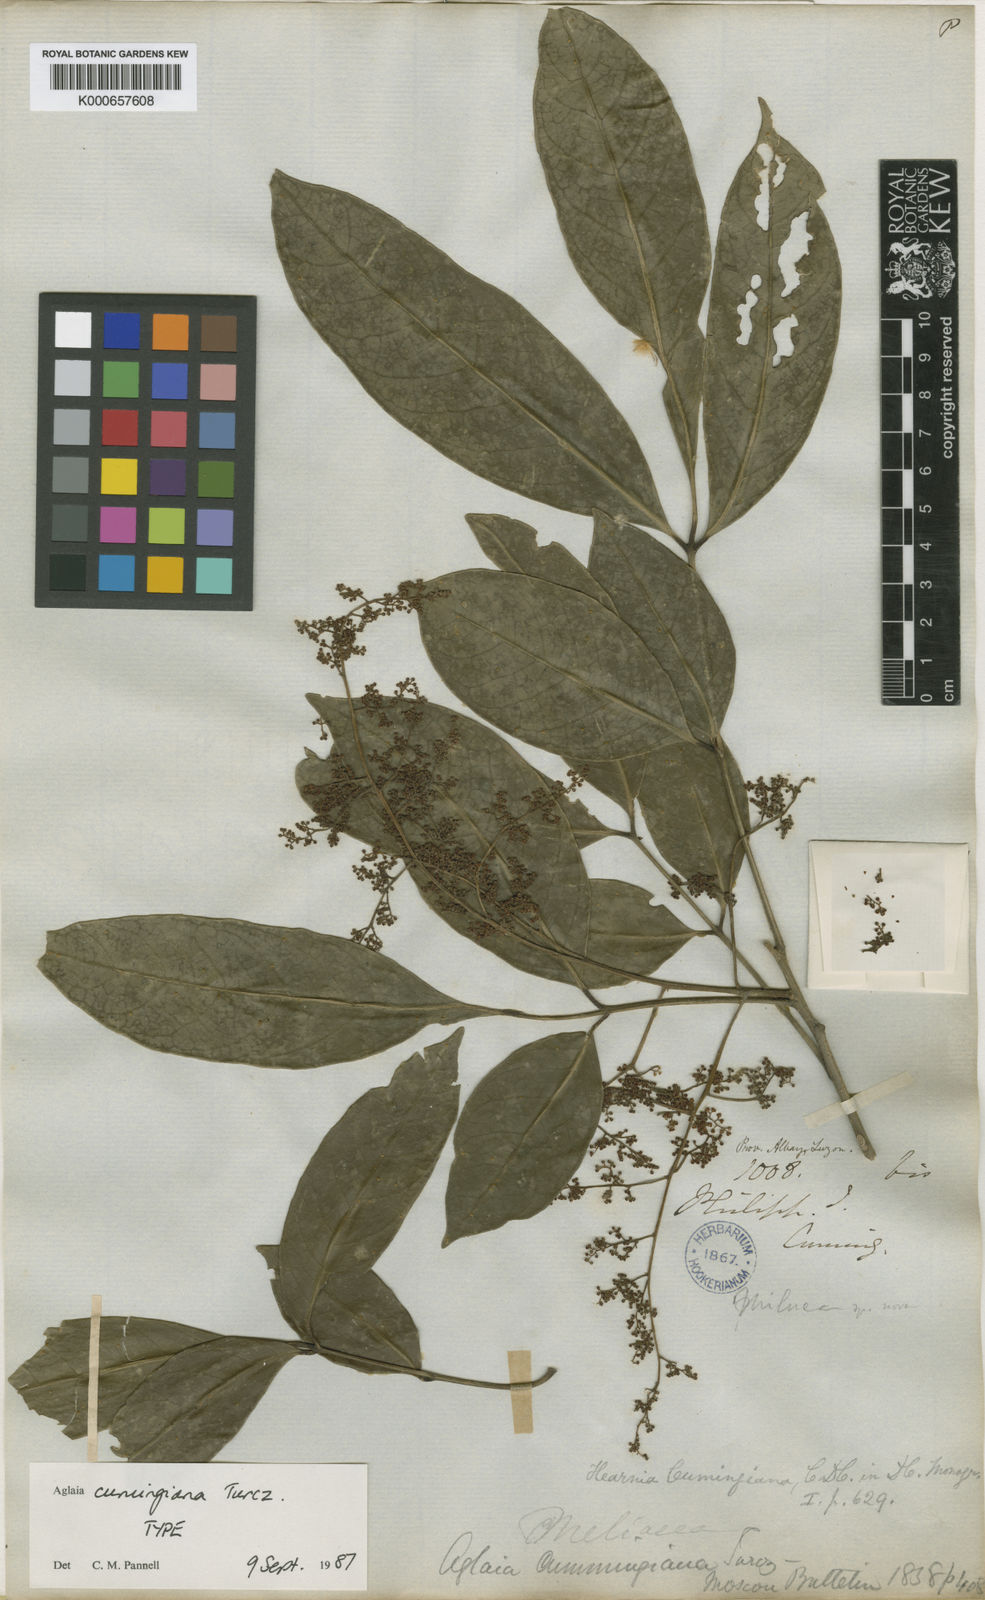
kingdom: Plantae
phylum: Tracheophyta
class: Magnoliopsida
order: Sapindales
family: Meliaceae
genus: Aglaia
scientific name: Aglaia cumingiana
